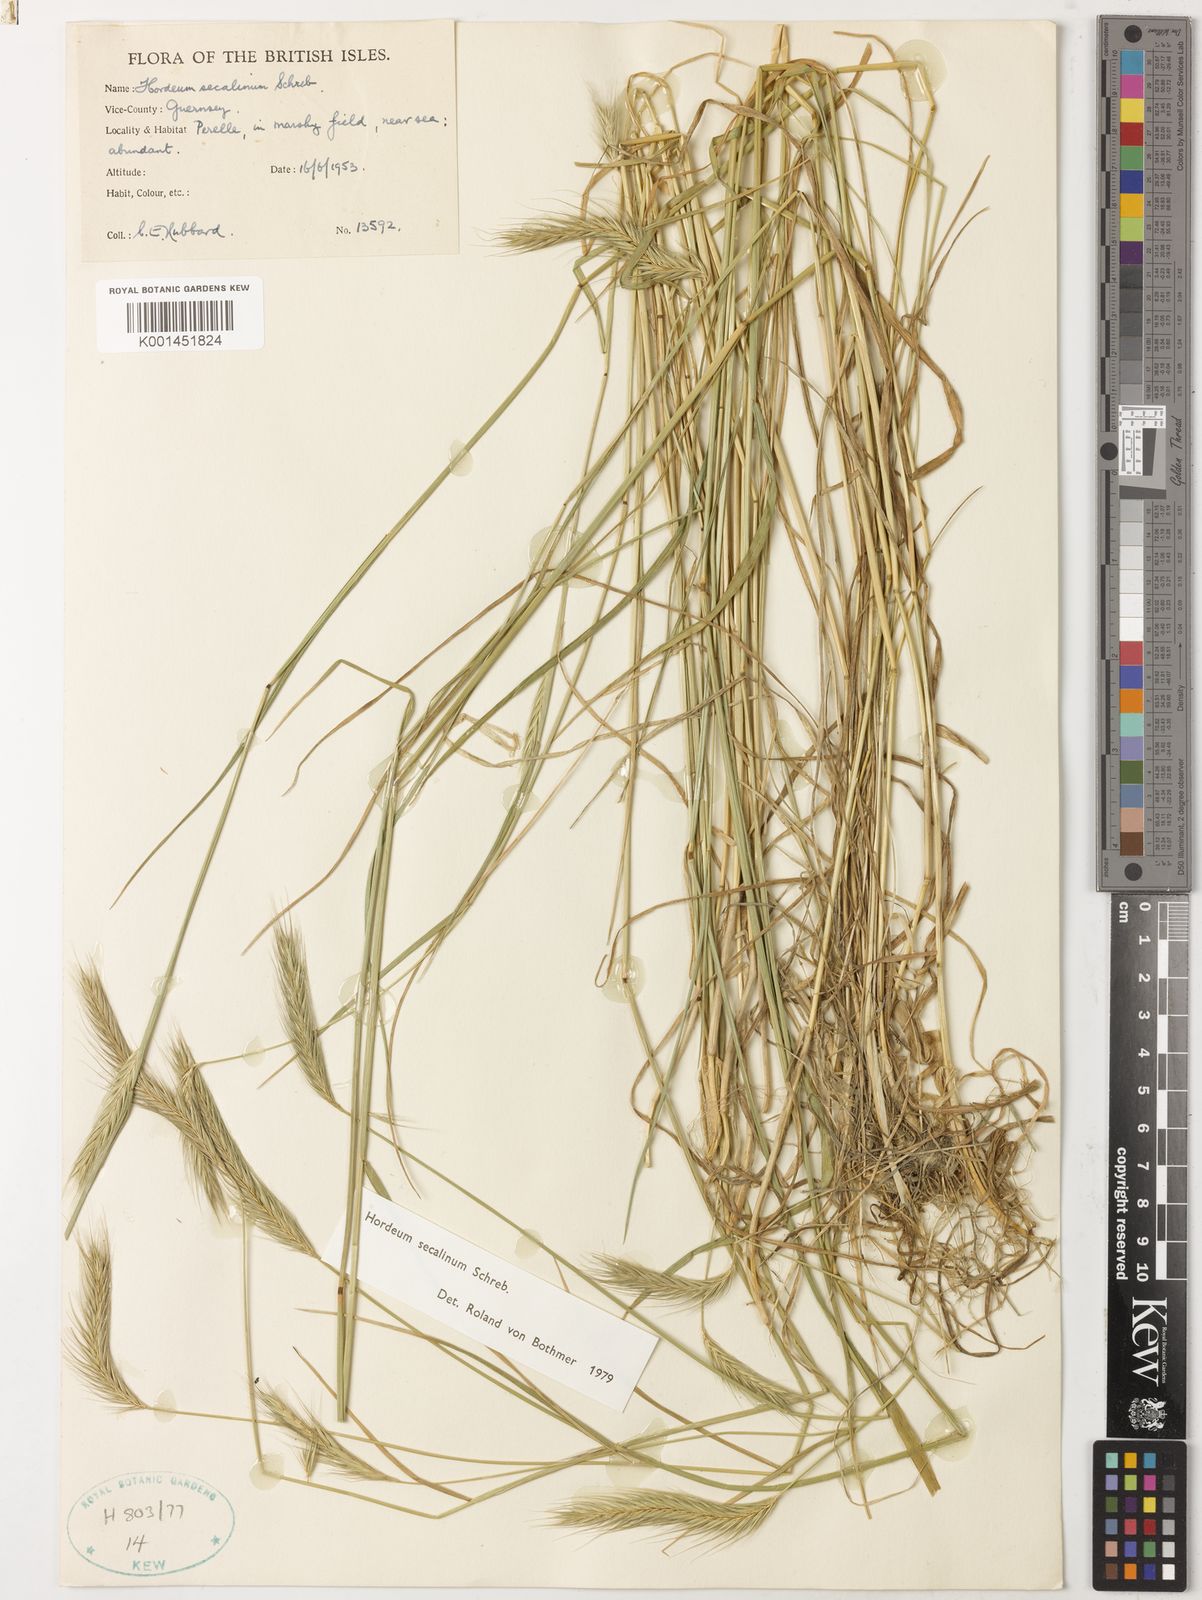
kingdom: Plantae
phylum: Tracheophyta
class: Liliopsida
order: Poales
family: Poaceae
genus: Hordeum
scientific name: Hordeum secalinum
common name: Meadow barley
